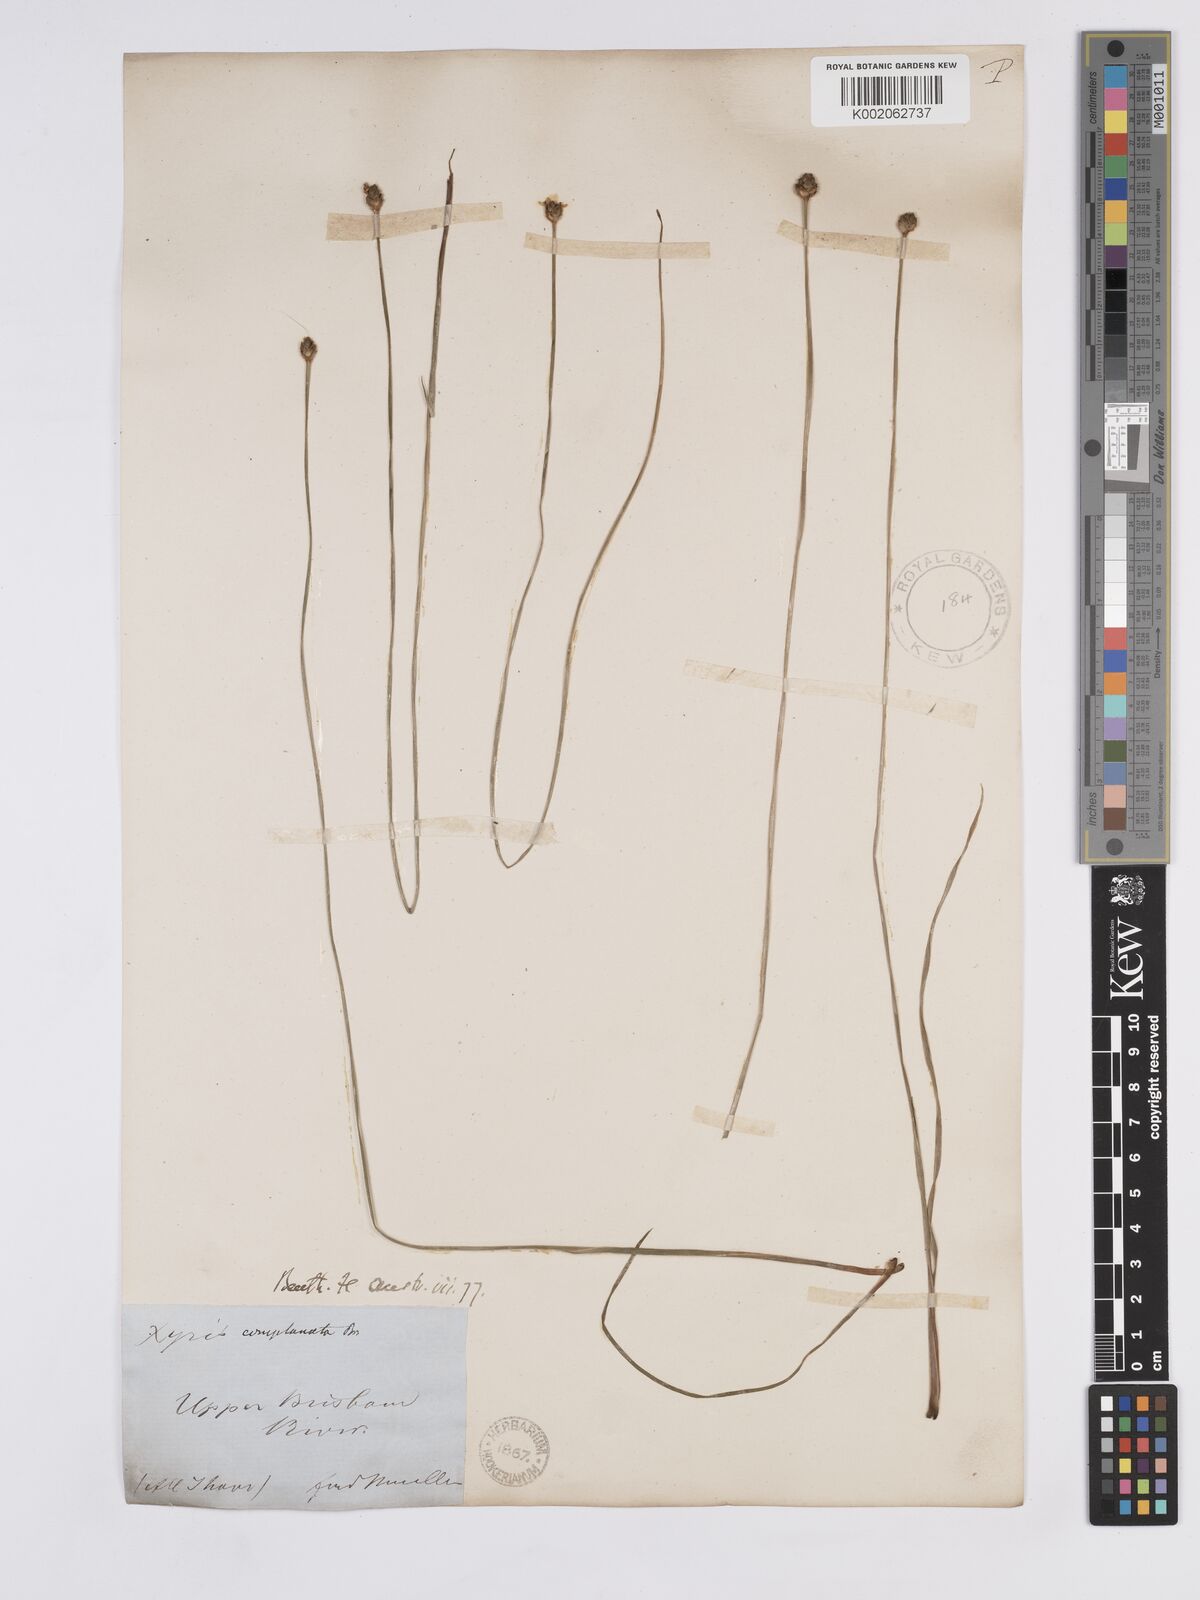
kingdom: Plantae
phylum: Tracheophyta
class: Liliopsida
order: Poales
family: Xyridaceae
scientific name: Xyridaceae
